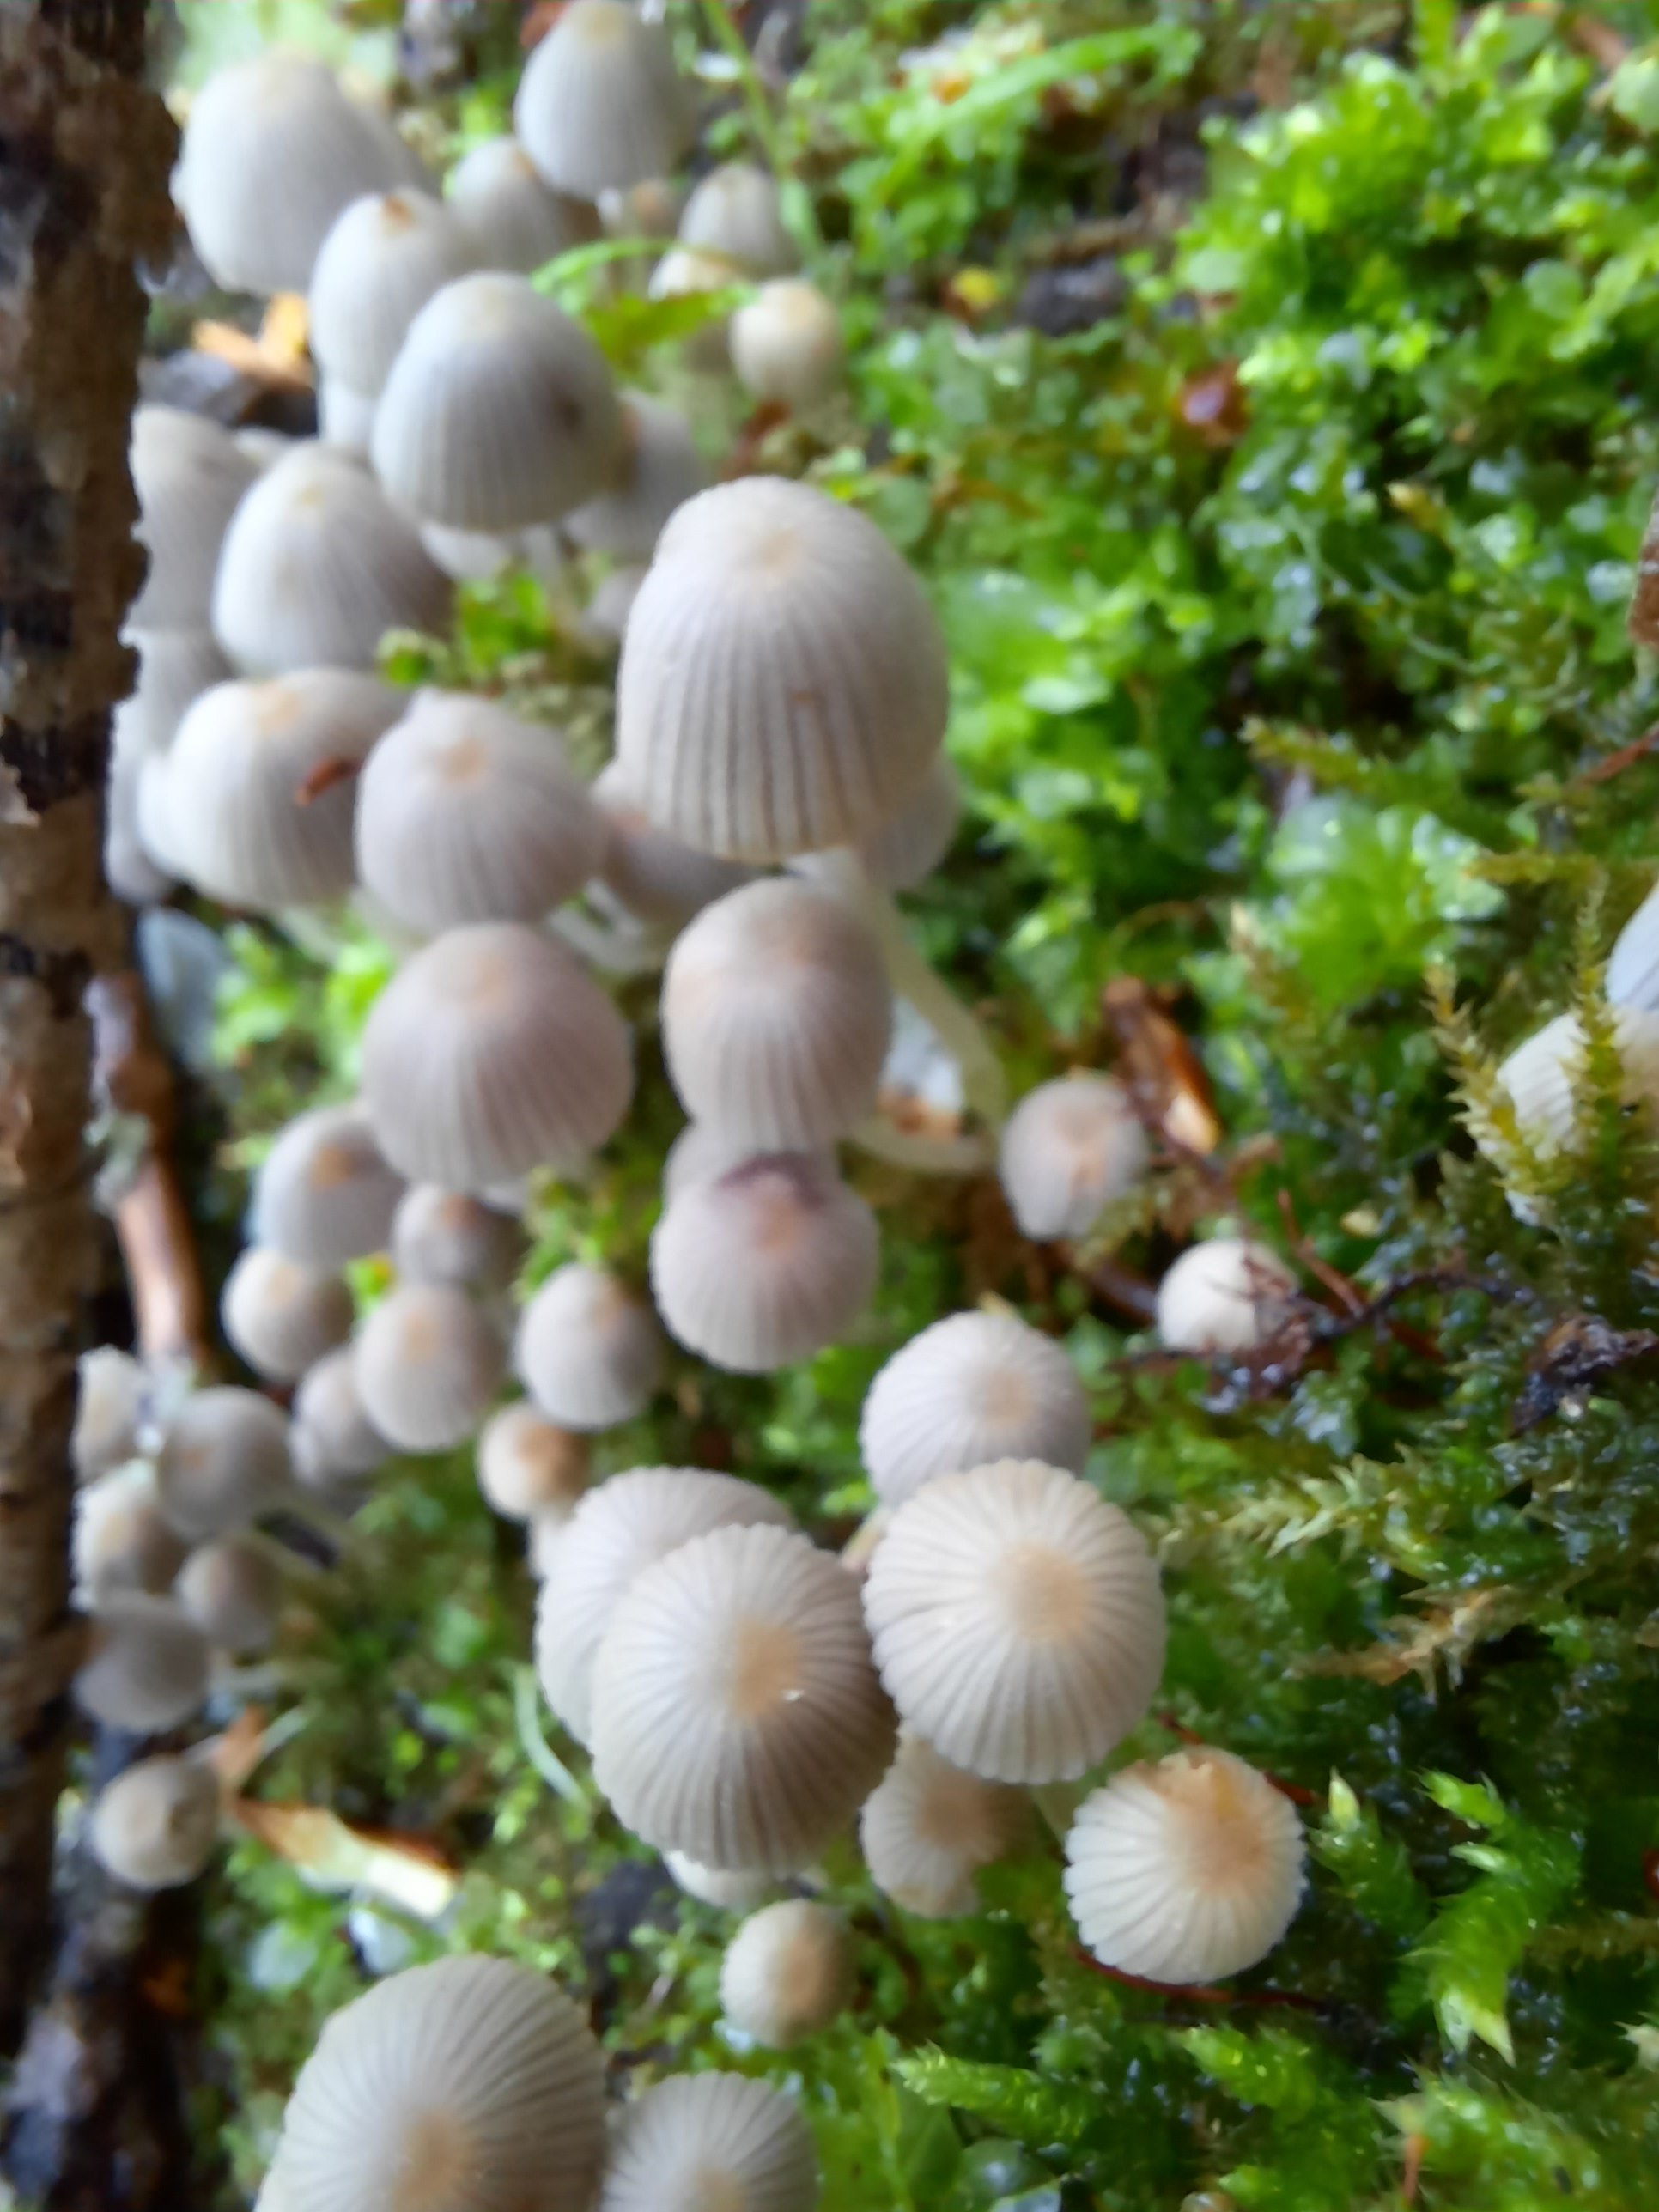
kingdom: Fungi
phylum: Basidiomycota
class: Agaricomycetes
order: Agaricales
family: Psathyrellaceae
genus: Coprinellus
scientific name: Coprinellus disseminatus
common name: bredsået blækhat
